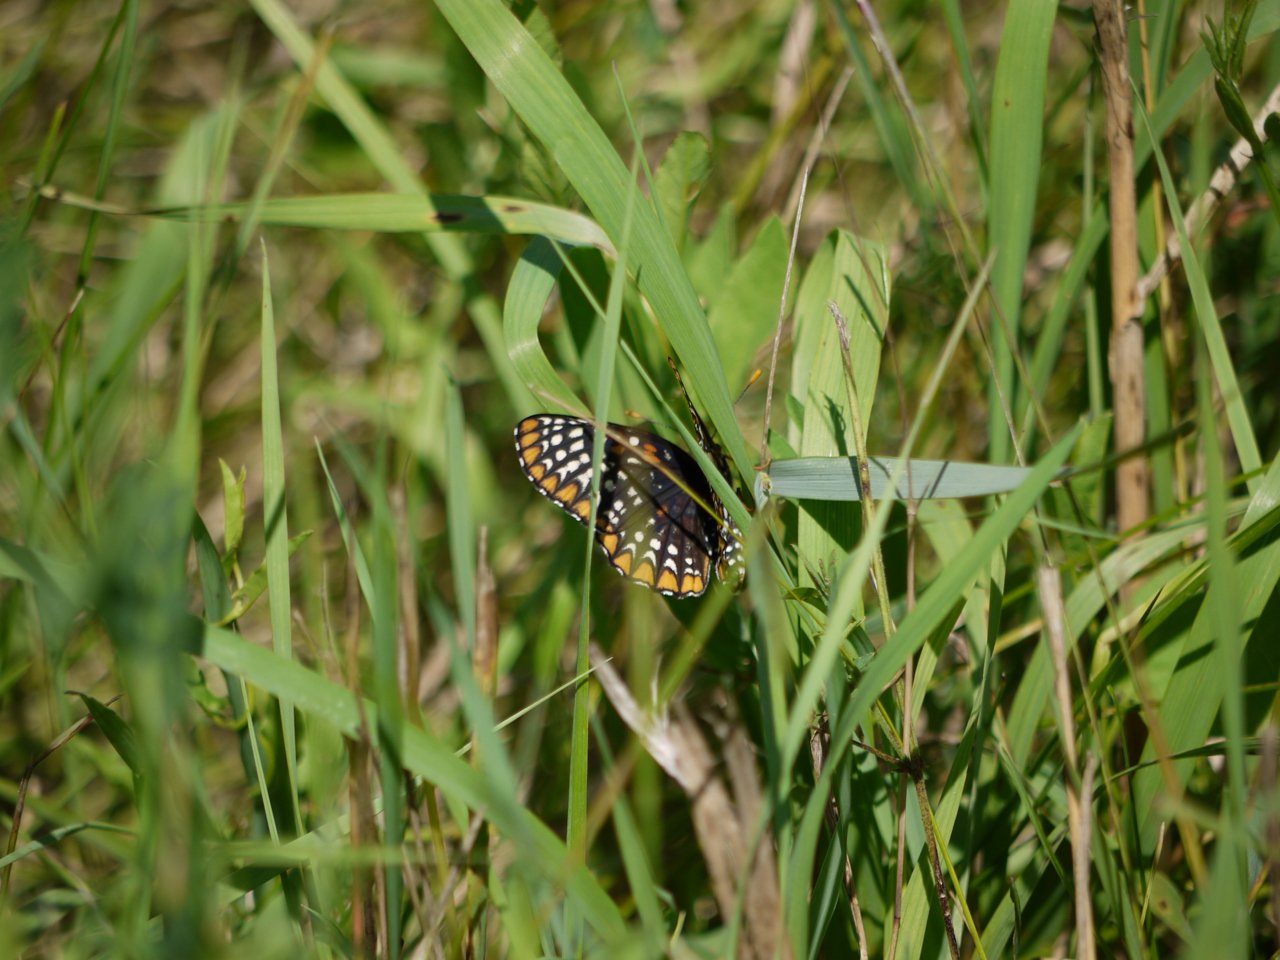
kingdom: Animalia
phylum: Arthropoda
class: Insecta
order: Lepidoptera
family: Nymphalidae
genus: Euphydryas
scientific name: Euphydryas phaeton
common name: Baltimore Checkerspot
